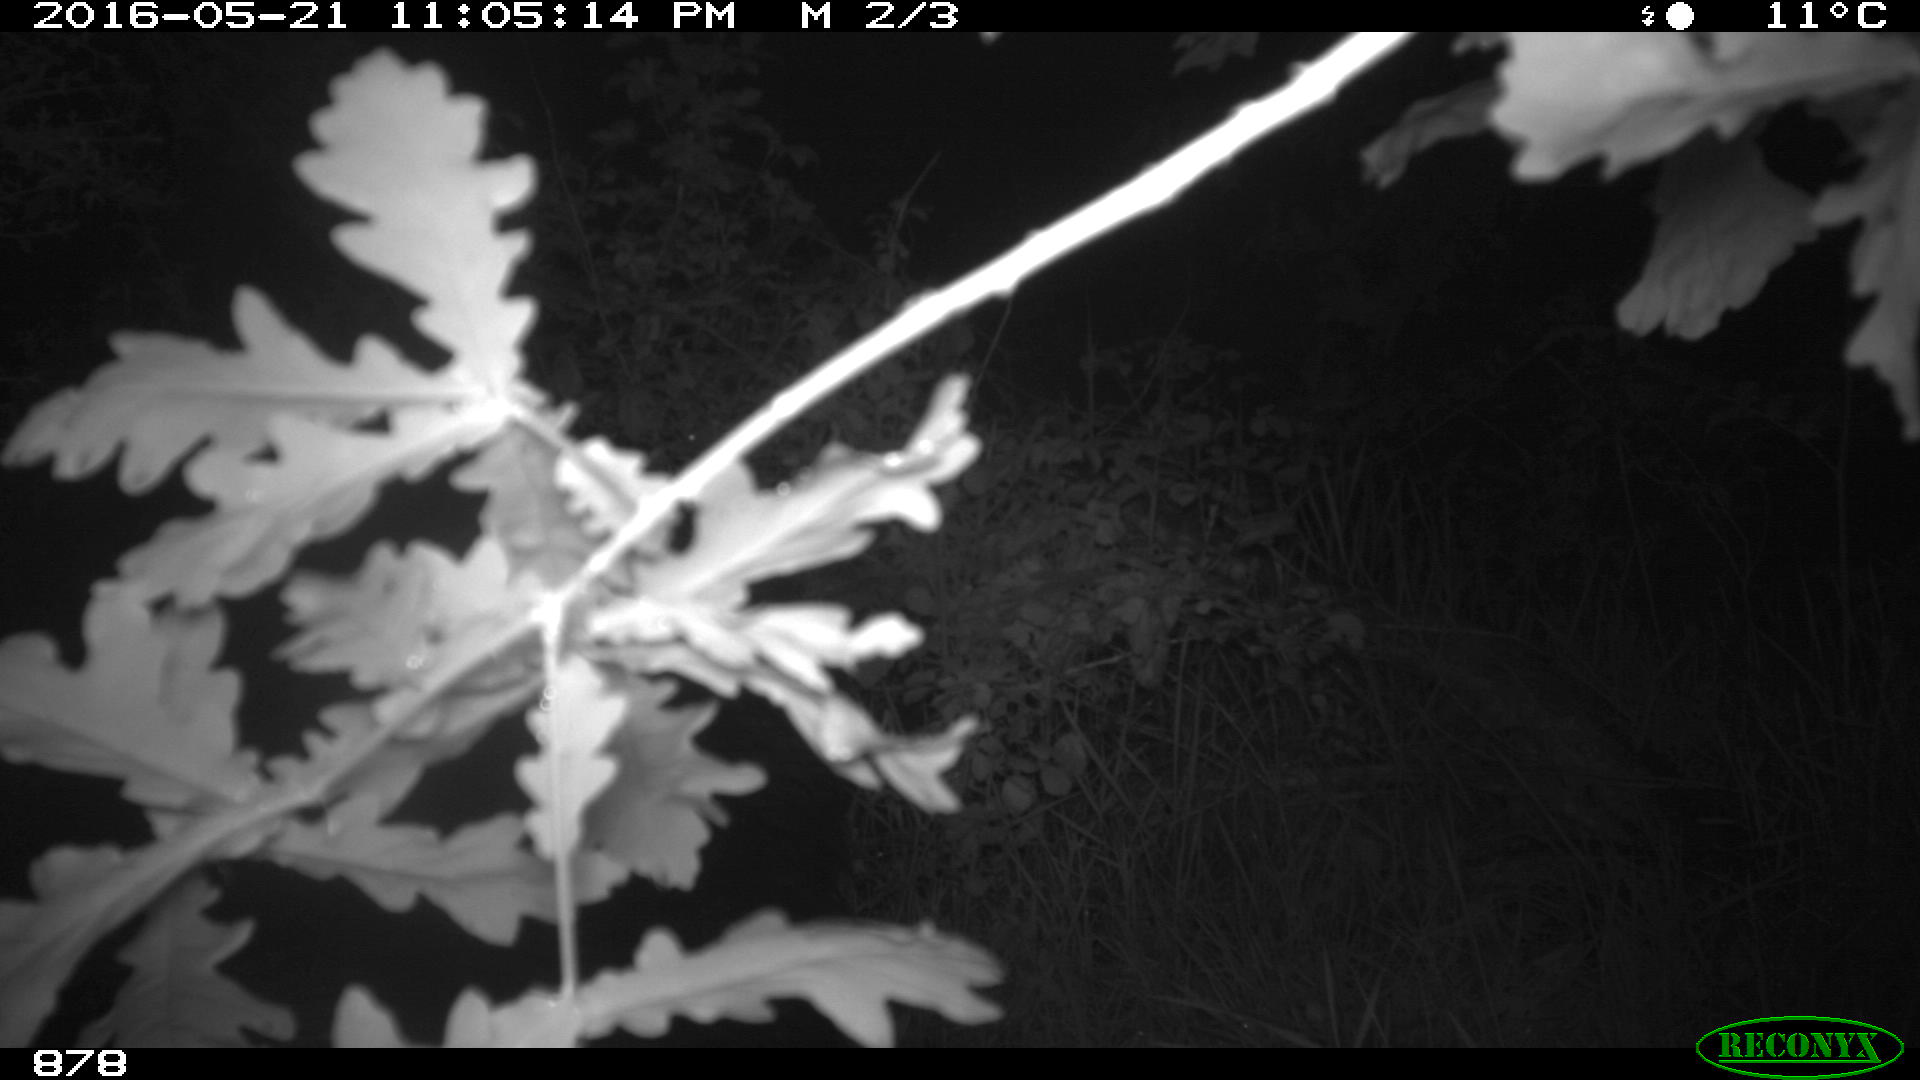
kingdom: Animalia
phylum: Chordata
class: Mammalia
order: Artiodactyla
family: Suidae
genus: Sus
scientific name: Sus scrofa
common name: Wild boar
